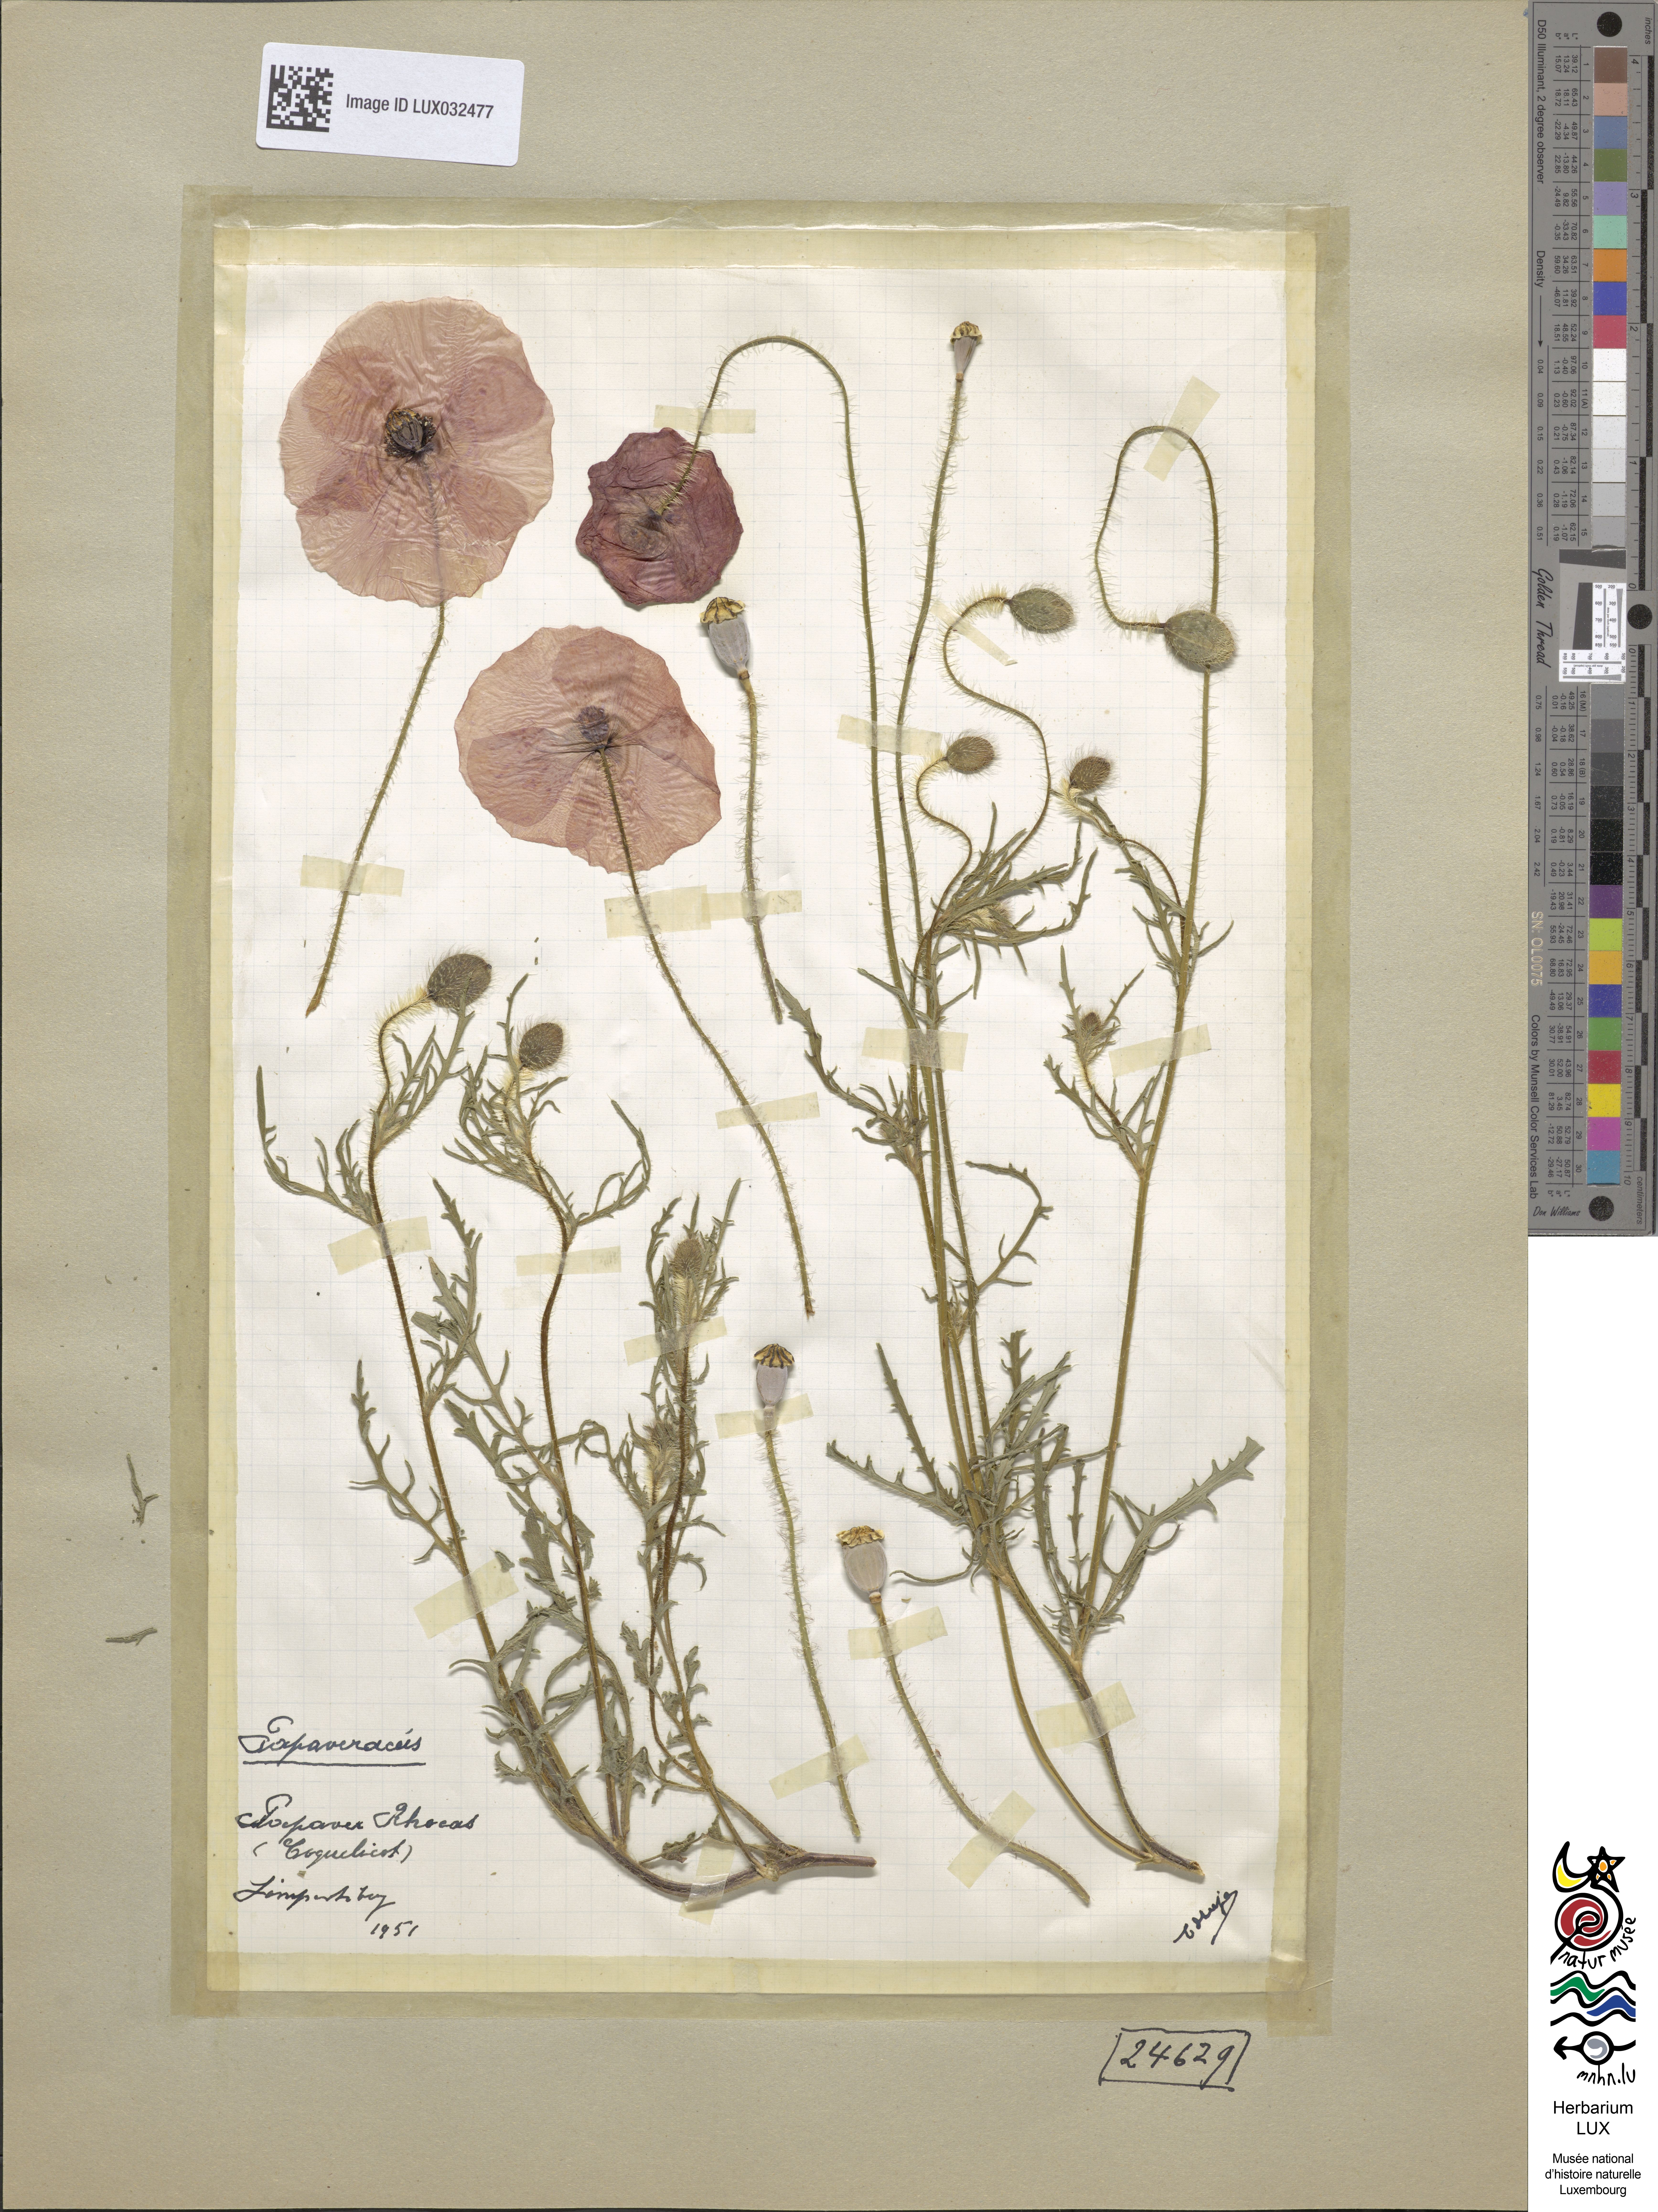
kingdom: Plantae
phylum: Tracheophyta
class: Magnoliopsida
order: Ranunculales
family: Papaveraceae
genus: Papaver
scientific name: Papaver rhoeas
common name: Corn poppy
